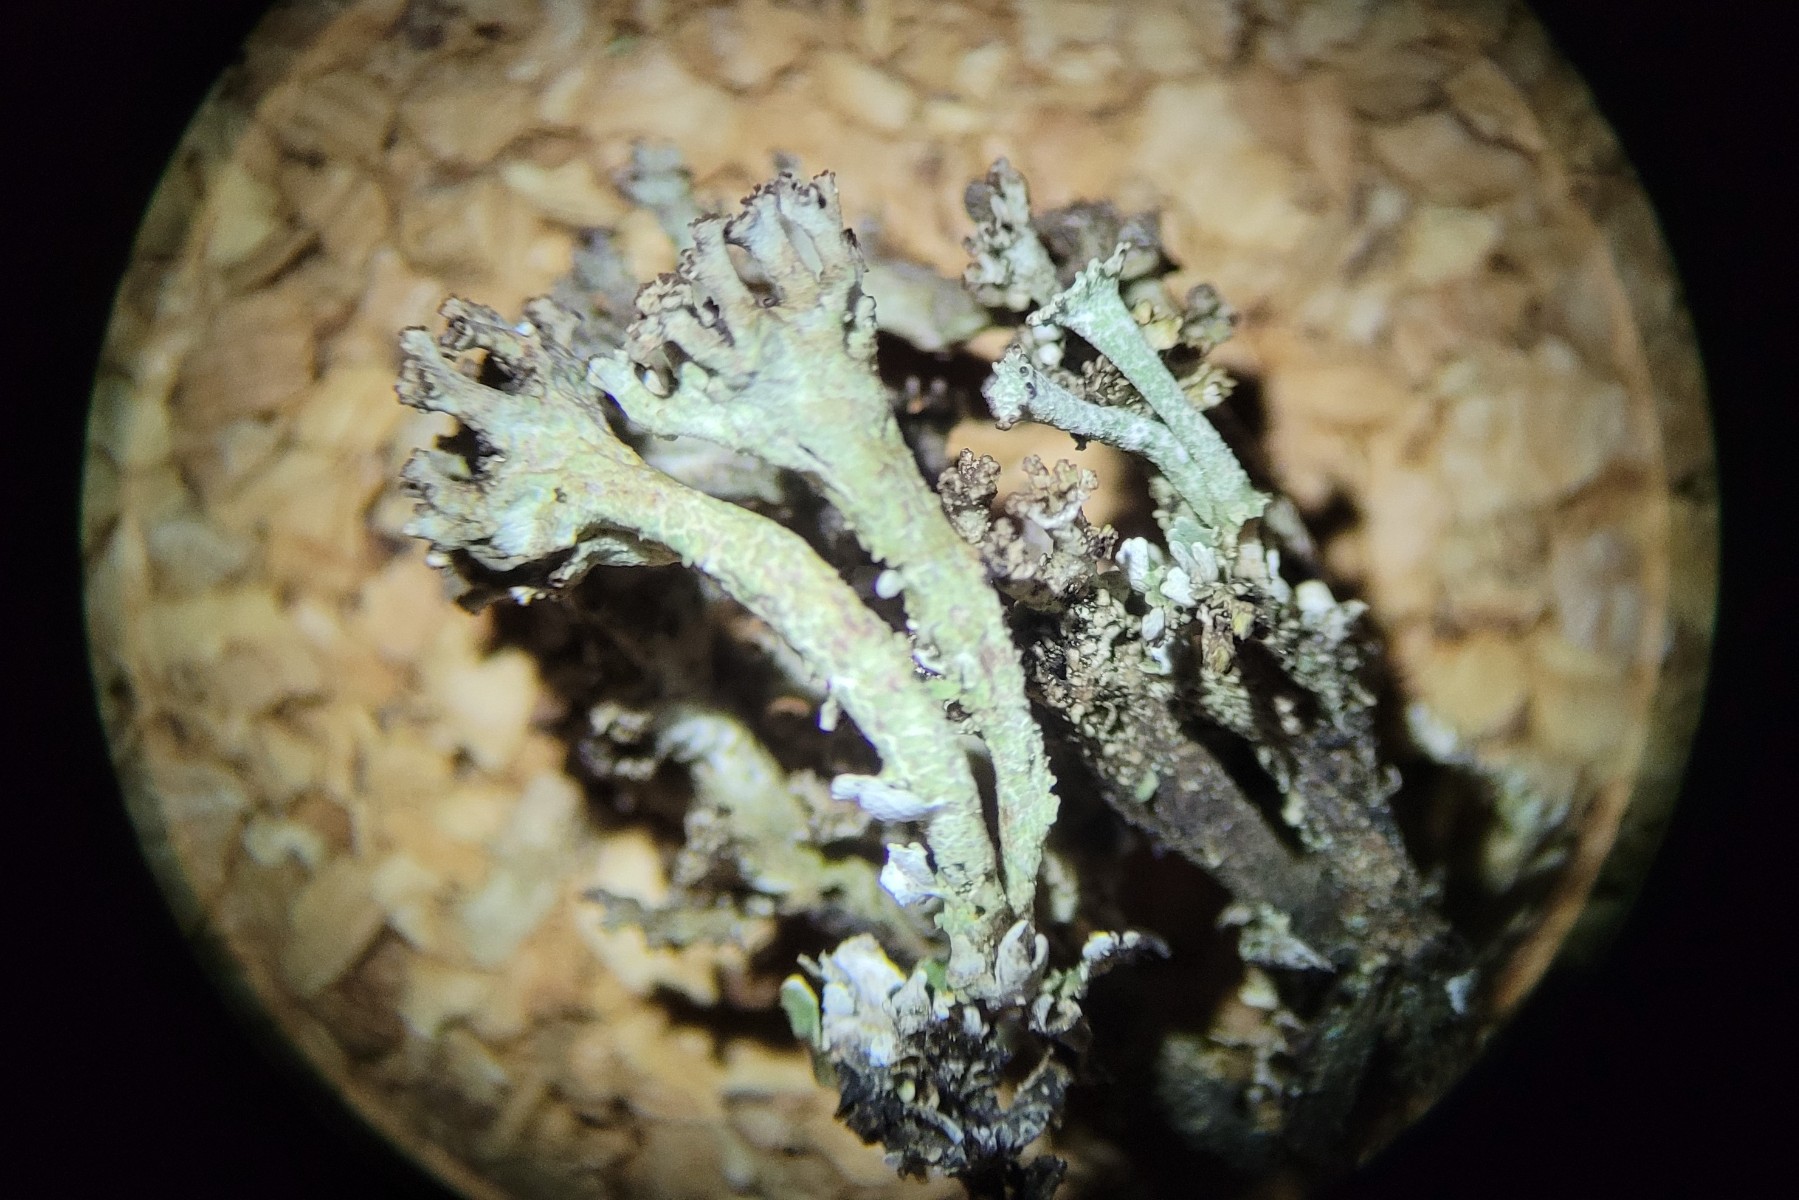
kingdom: Fungi
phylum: Ascomycota
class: Lecanoromycetes
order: Lecanorales
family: Cladoniaceae
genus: Cladonia
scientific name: Cladonia phyllophora
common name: sortfodet bægerlav
